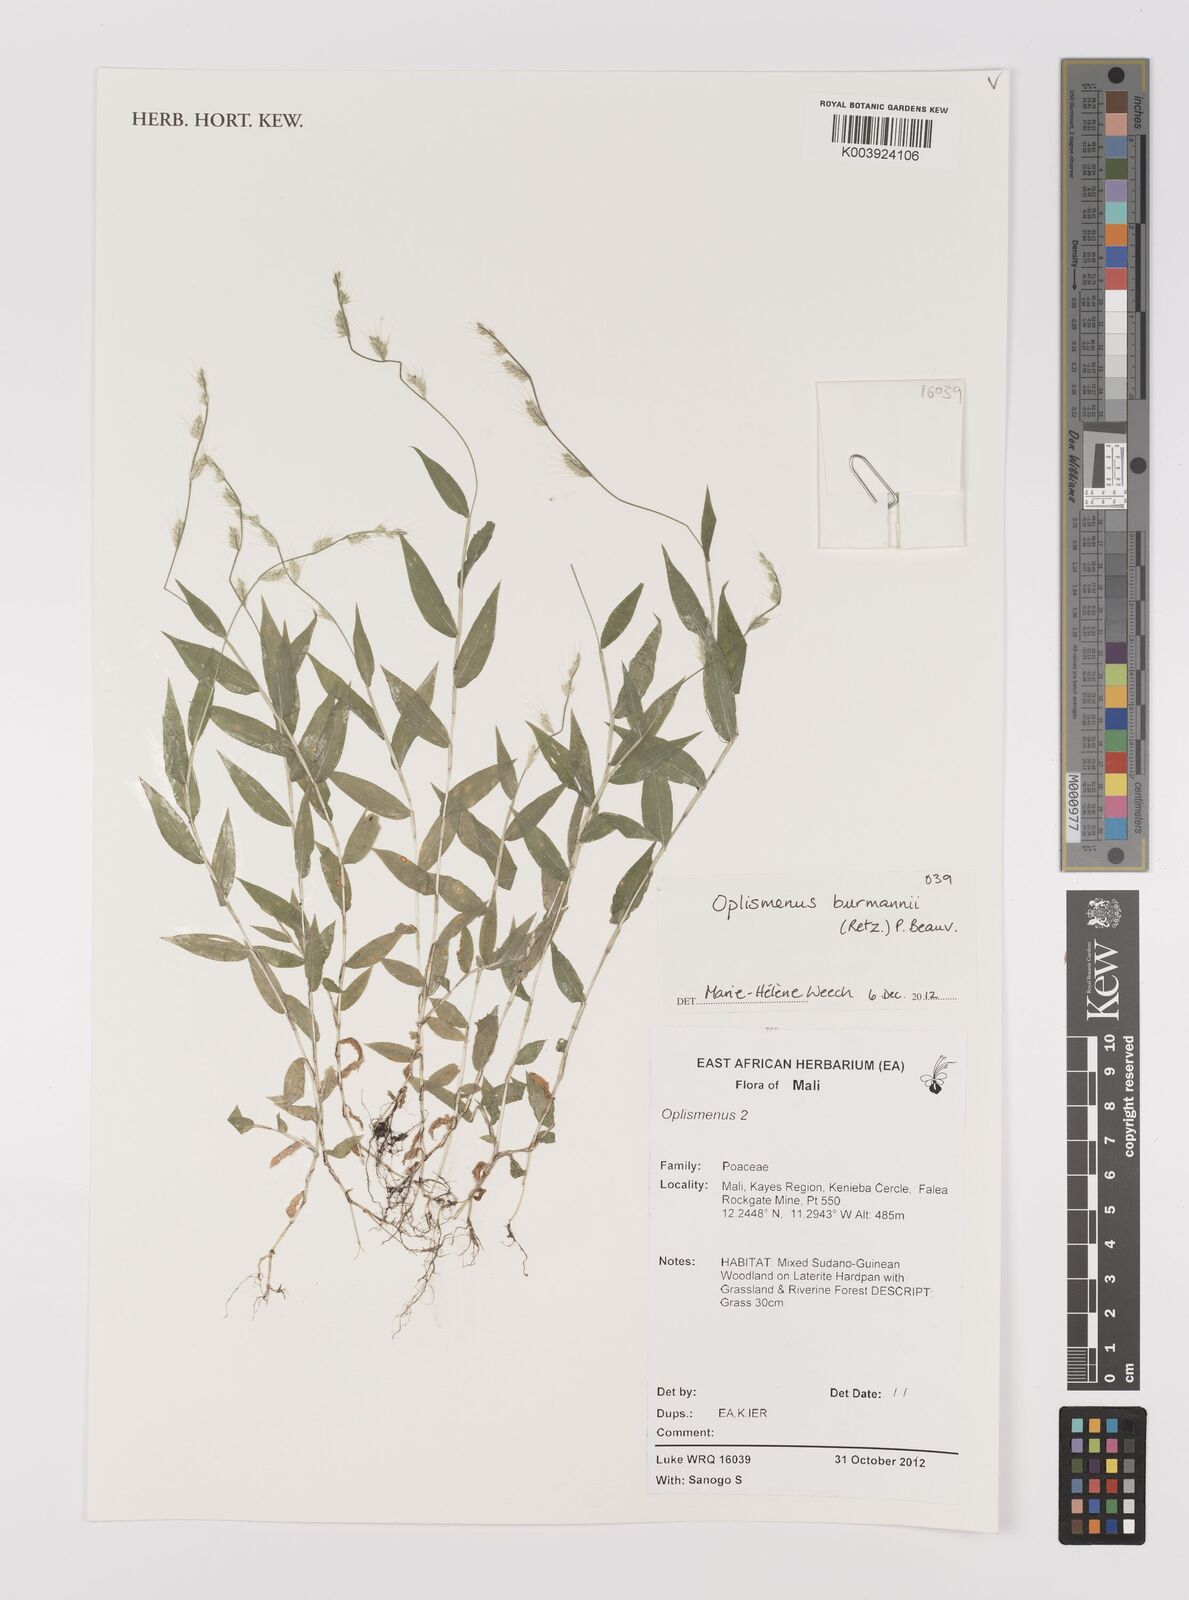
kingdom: Plantae
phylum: Tracheophyta
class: Liliopsida
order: Poales
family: Poaceae
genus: Oplismenus
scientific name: Oplismenus burmanni
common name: Burmann's basketgrass
